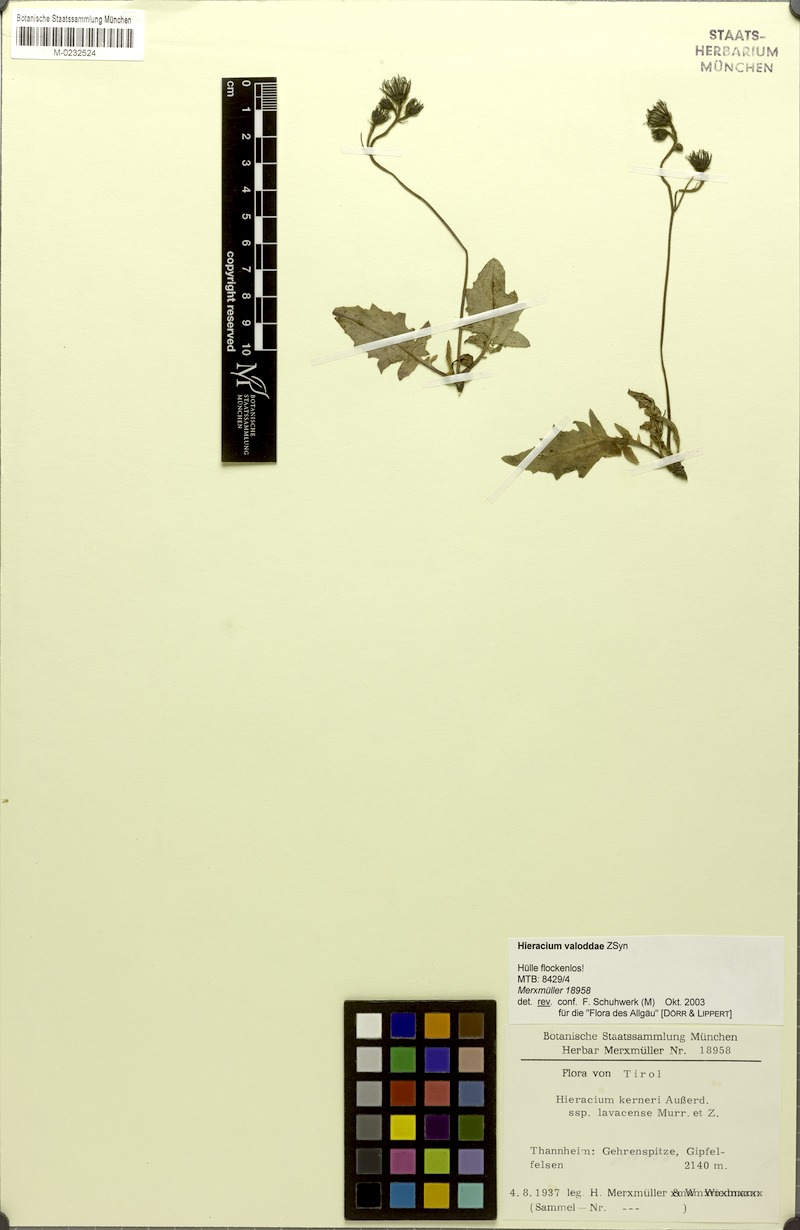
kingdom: Plantae
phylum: Tracheophyta
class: Magnoliopsida
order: Asterales
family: Asteraceae
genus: Hieracium
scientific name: Hieracium valoddae
